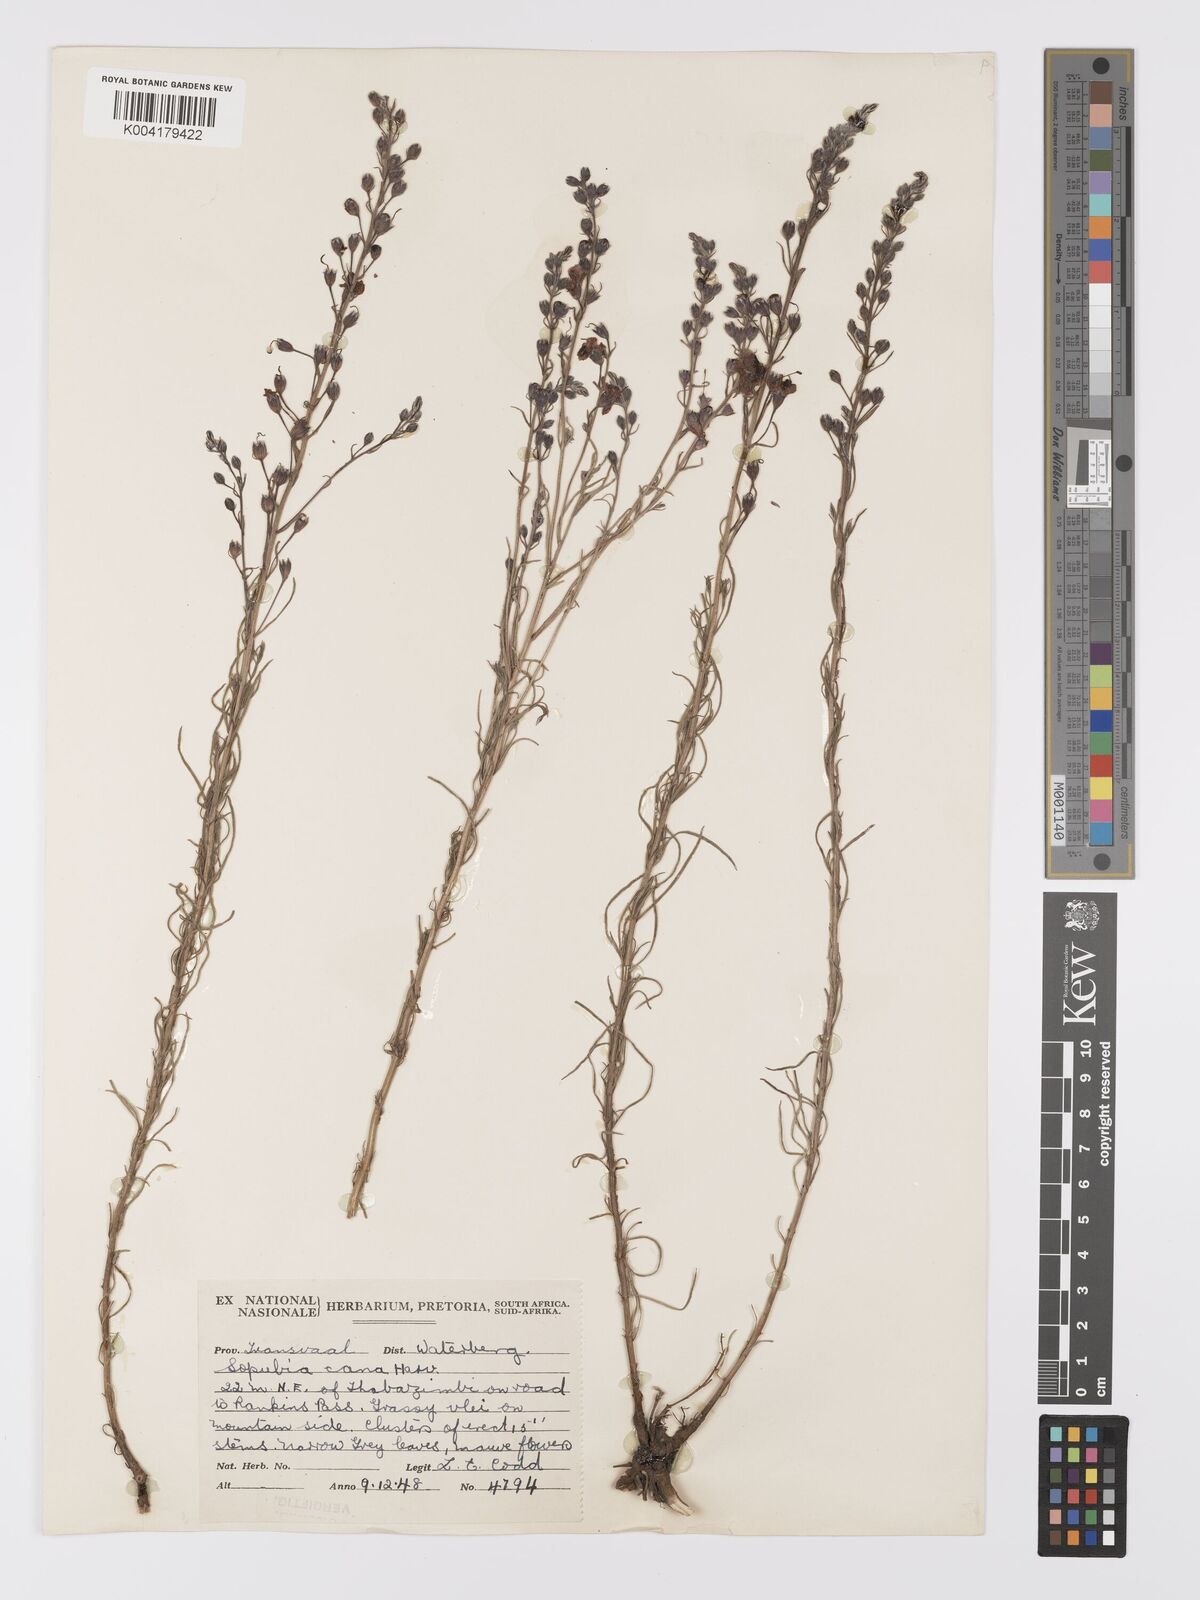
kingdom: Plantae
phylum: Tracheophyta
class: Magnoliopsida
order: Lamiales
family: Orobanchaceae
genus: Sopubia
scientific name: Sopubia simplex
